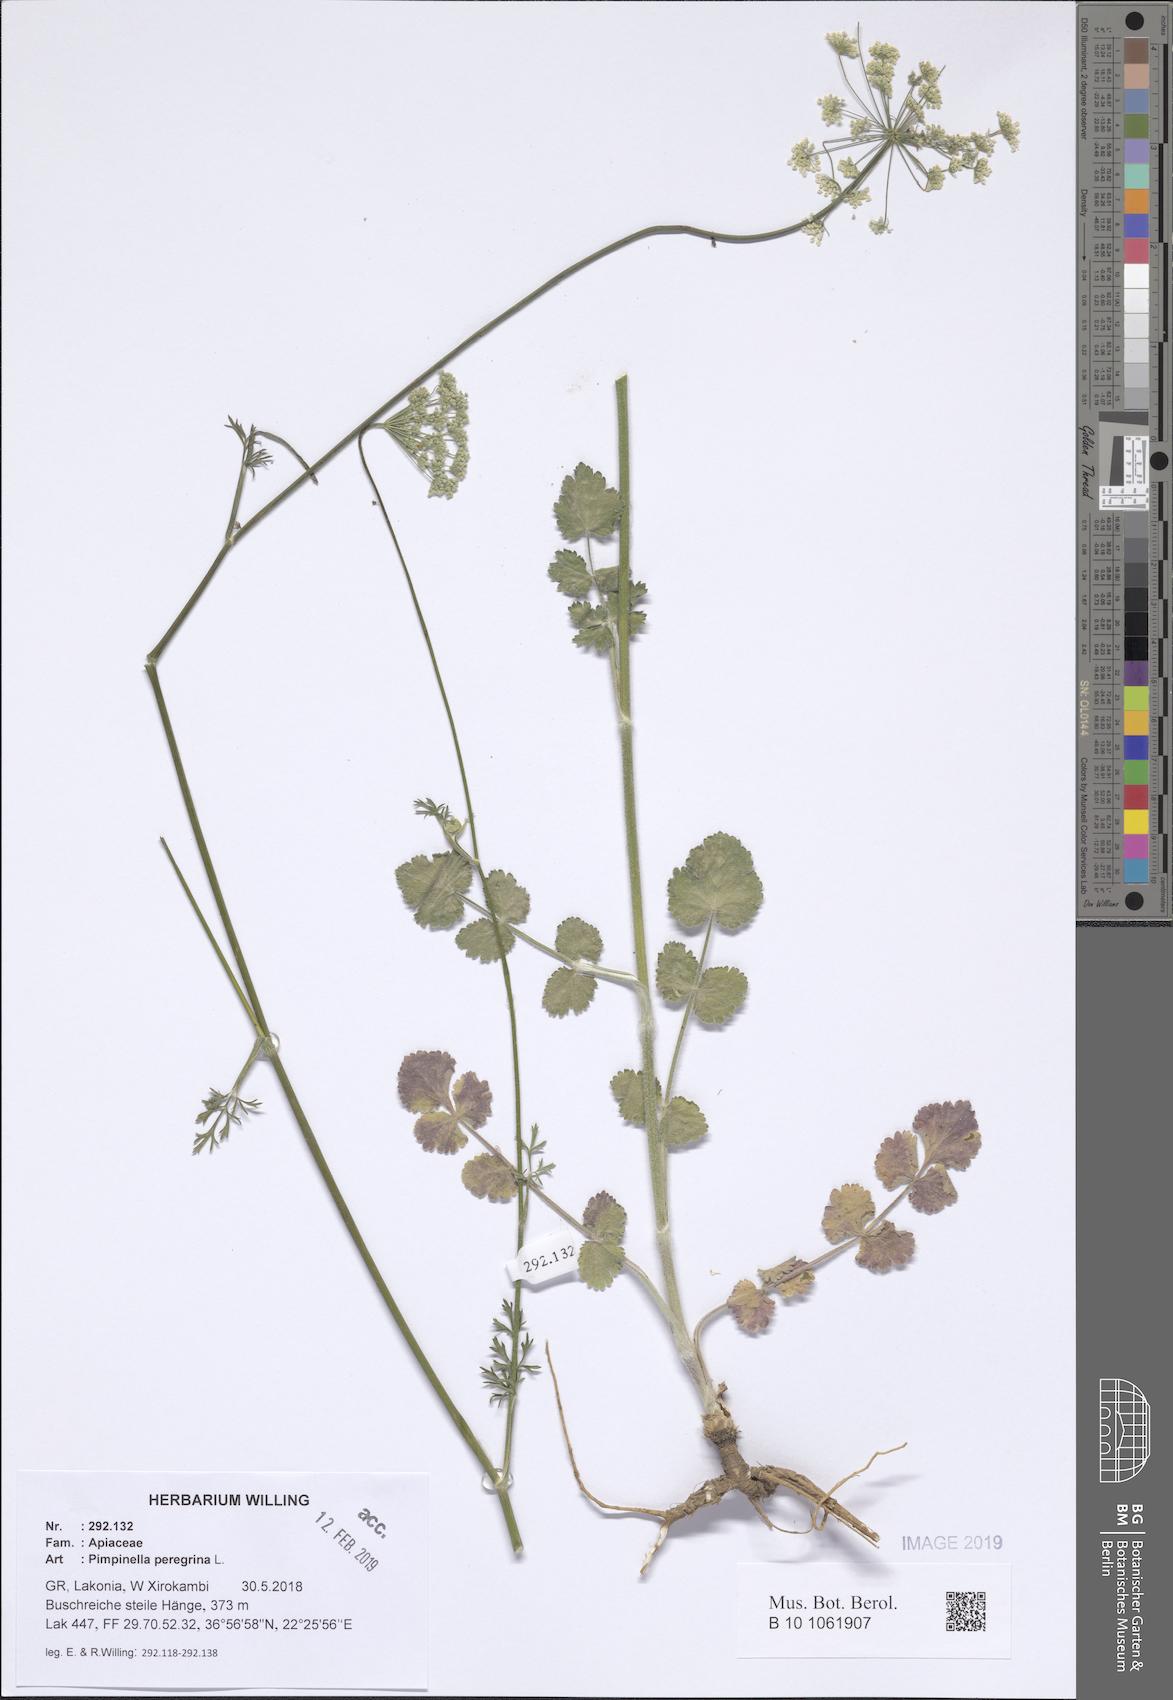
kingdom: Plantae
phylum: Tracheophyta
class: Magnoliopsida
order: Apiales
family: Apiaceae
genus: Pimpinella
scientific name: Pimpinella peregrina
